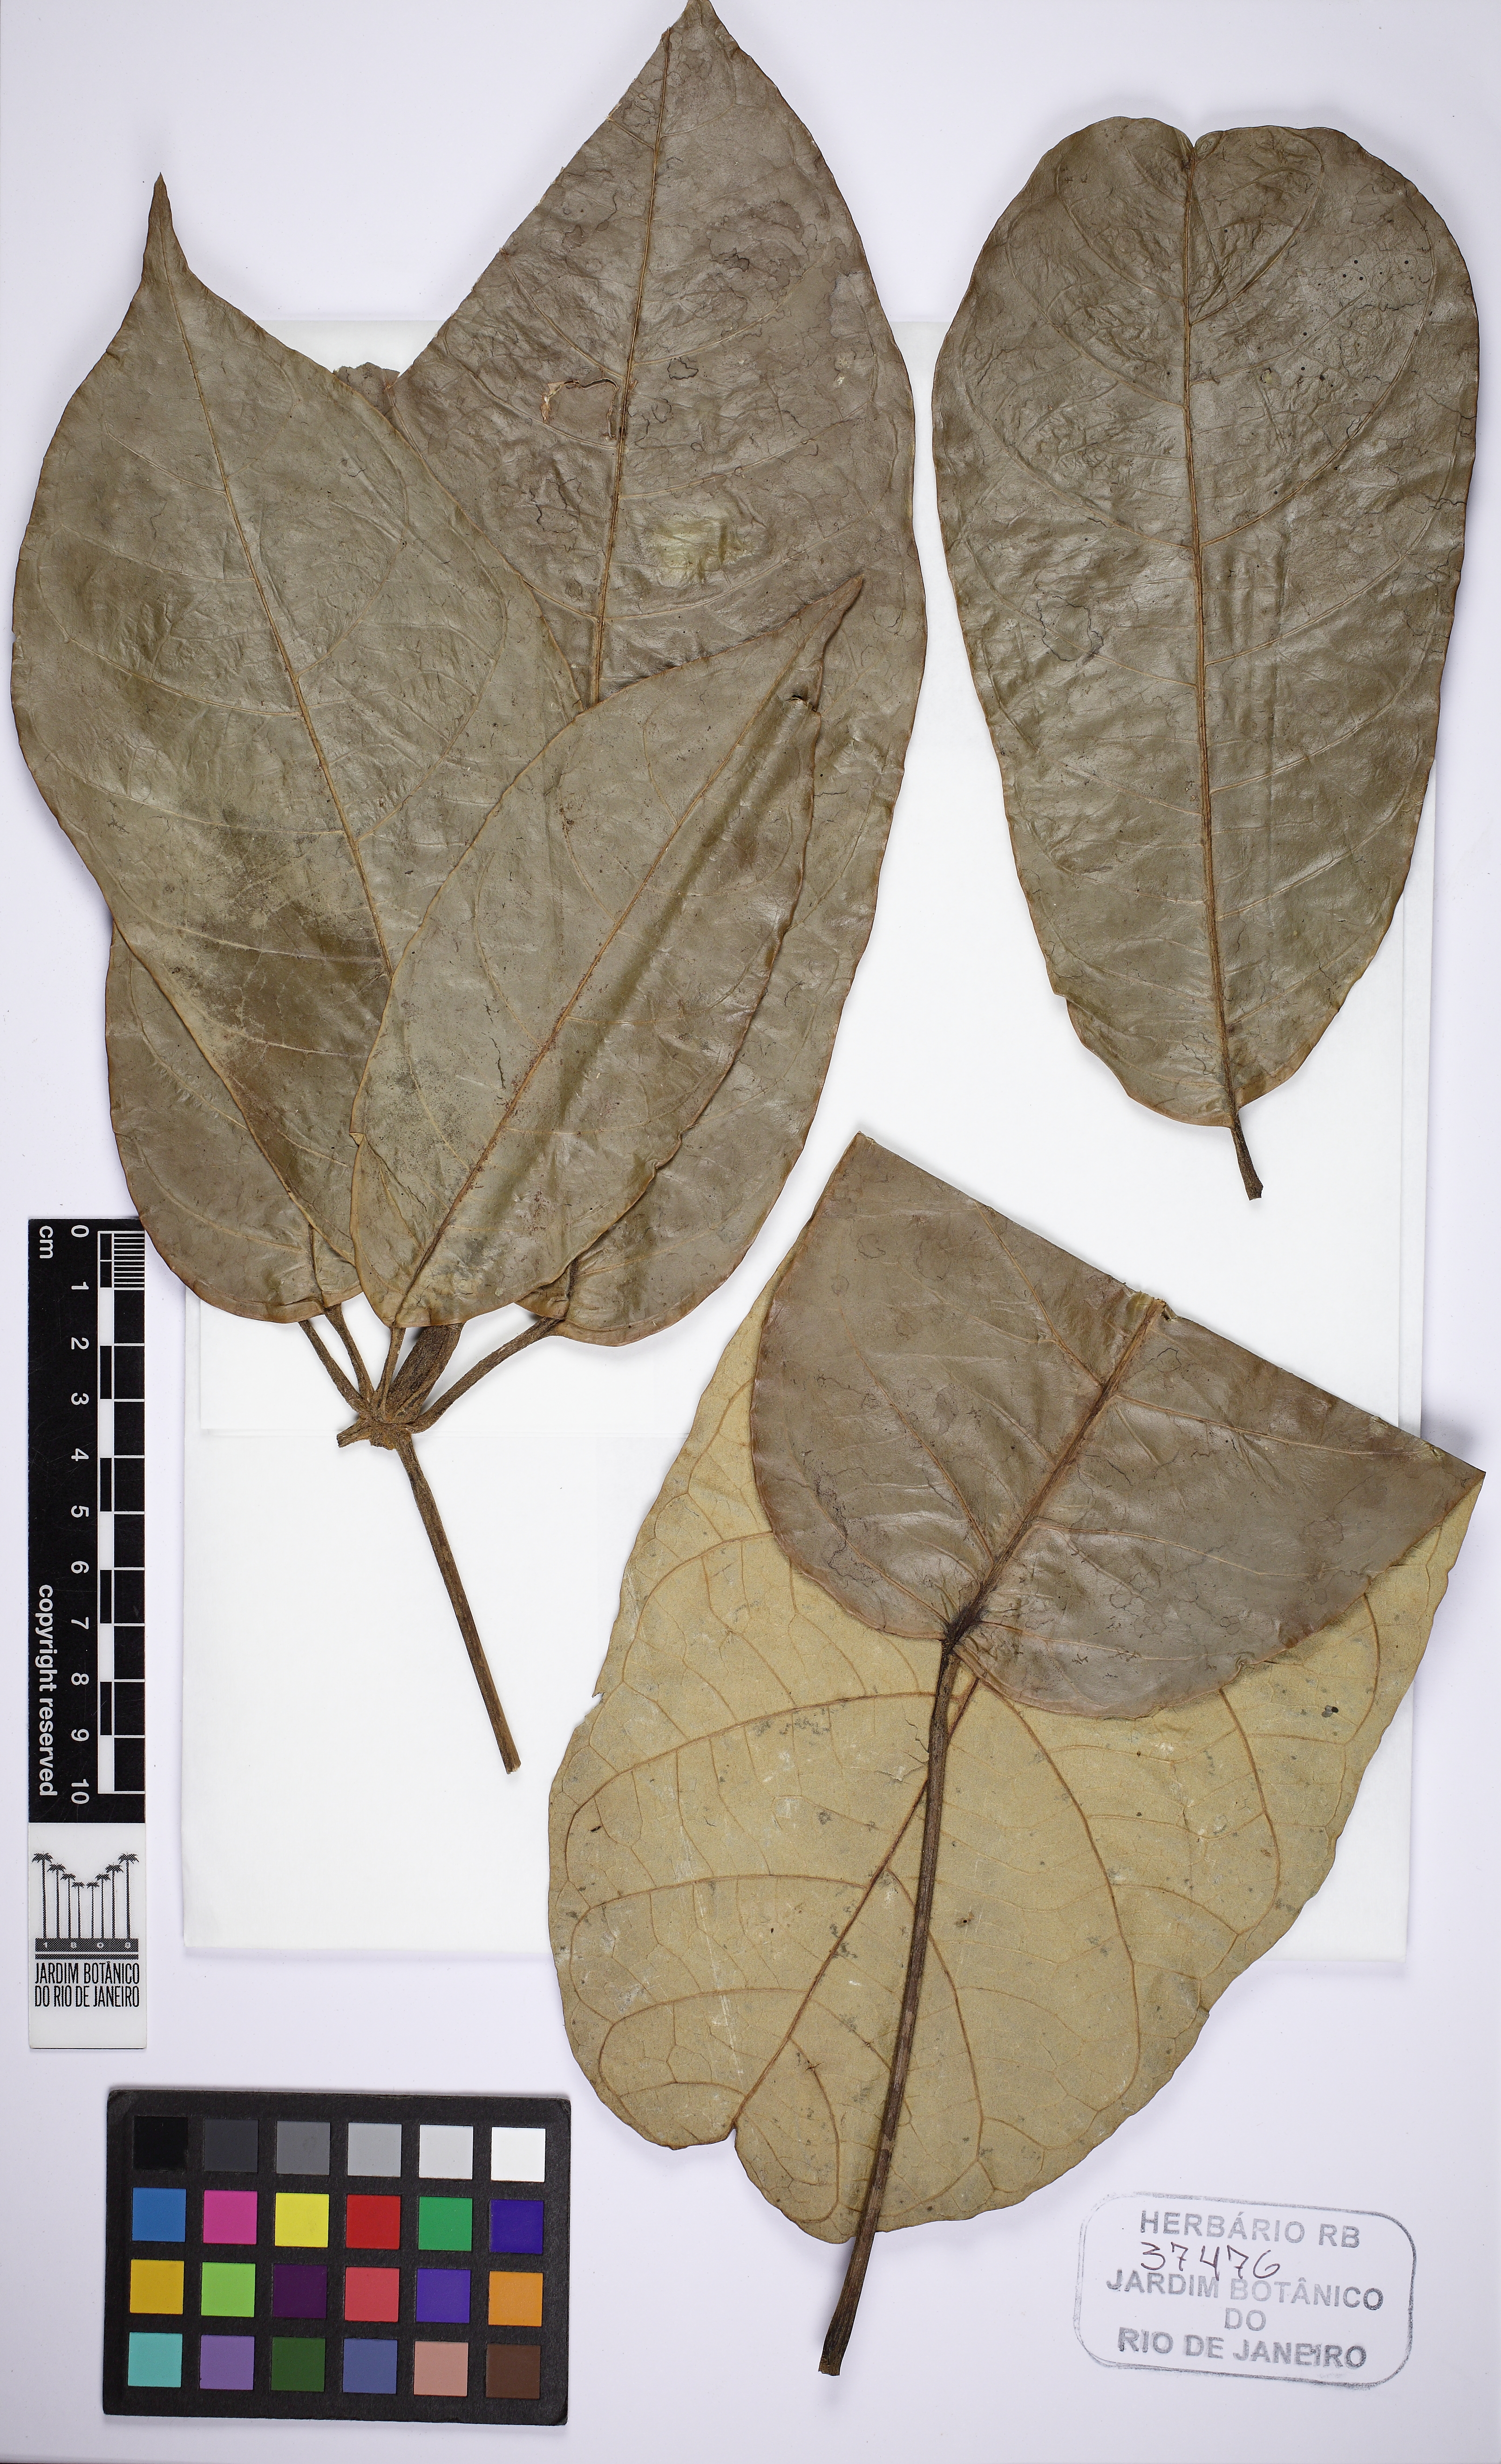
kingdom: Plantae
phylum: Tracheophyta
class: Magnoliopsida
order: Apiales
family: Araliaceae
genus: Schefflera
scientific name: Schefflera
